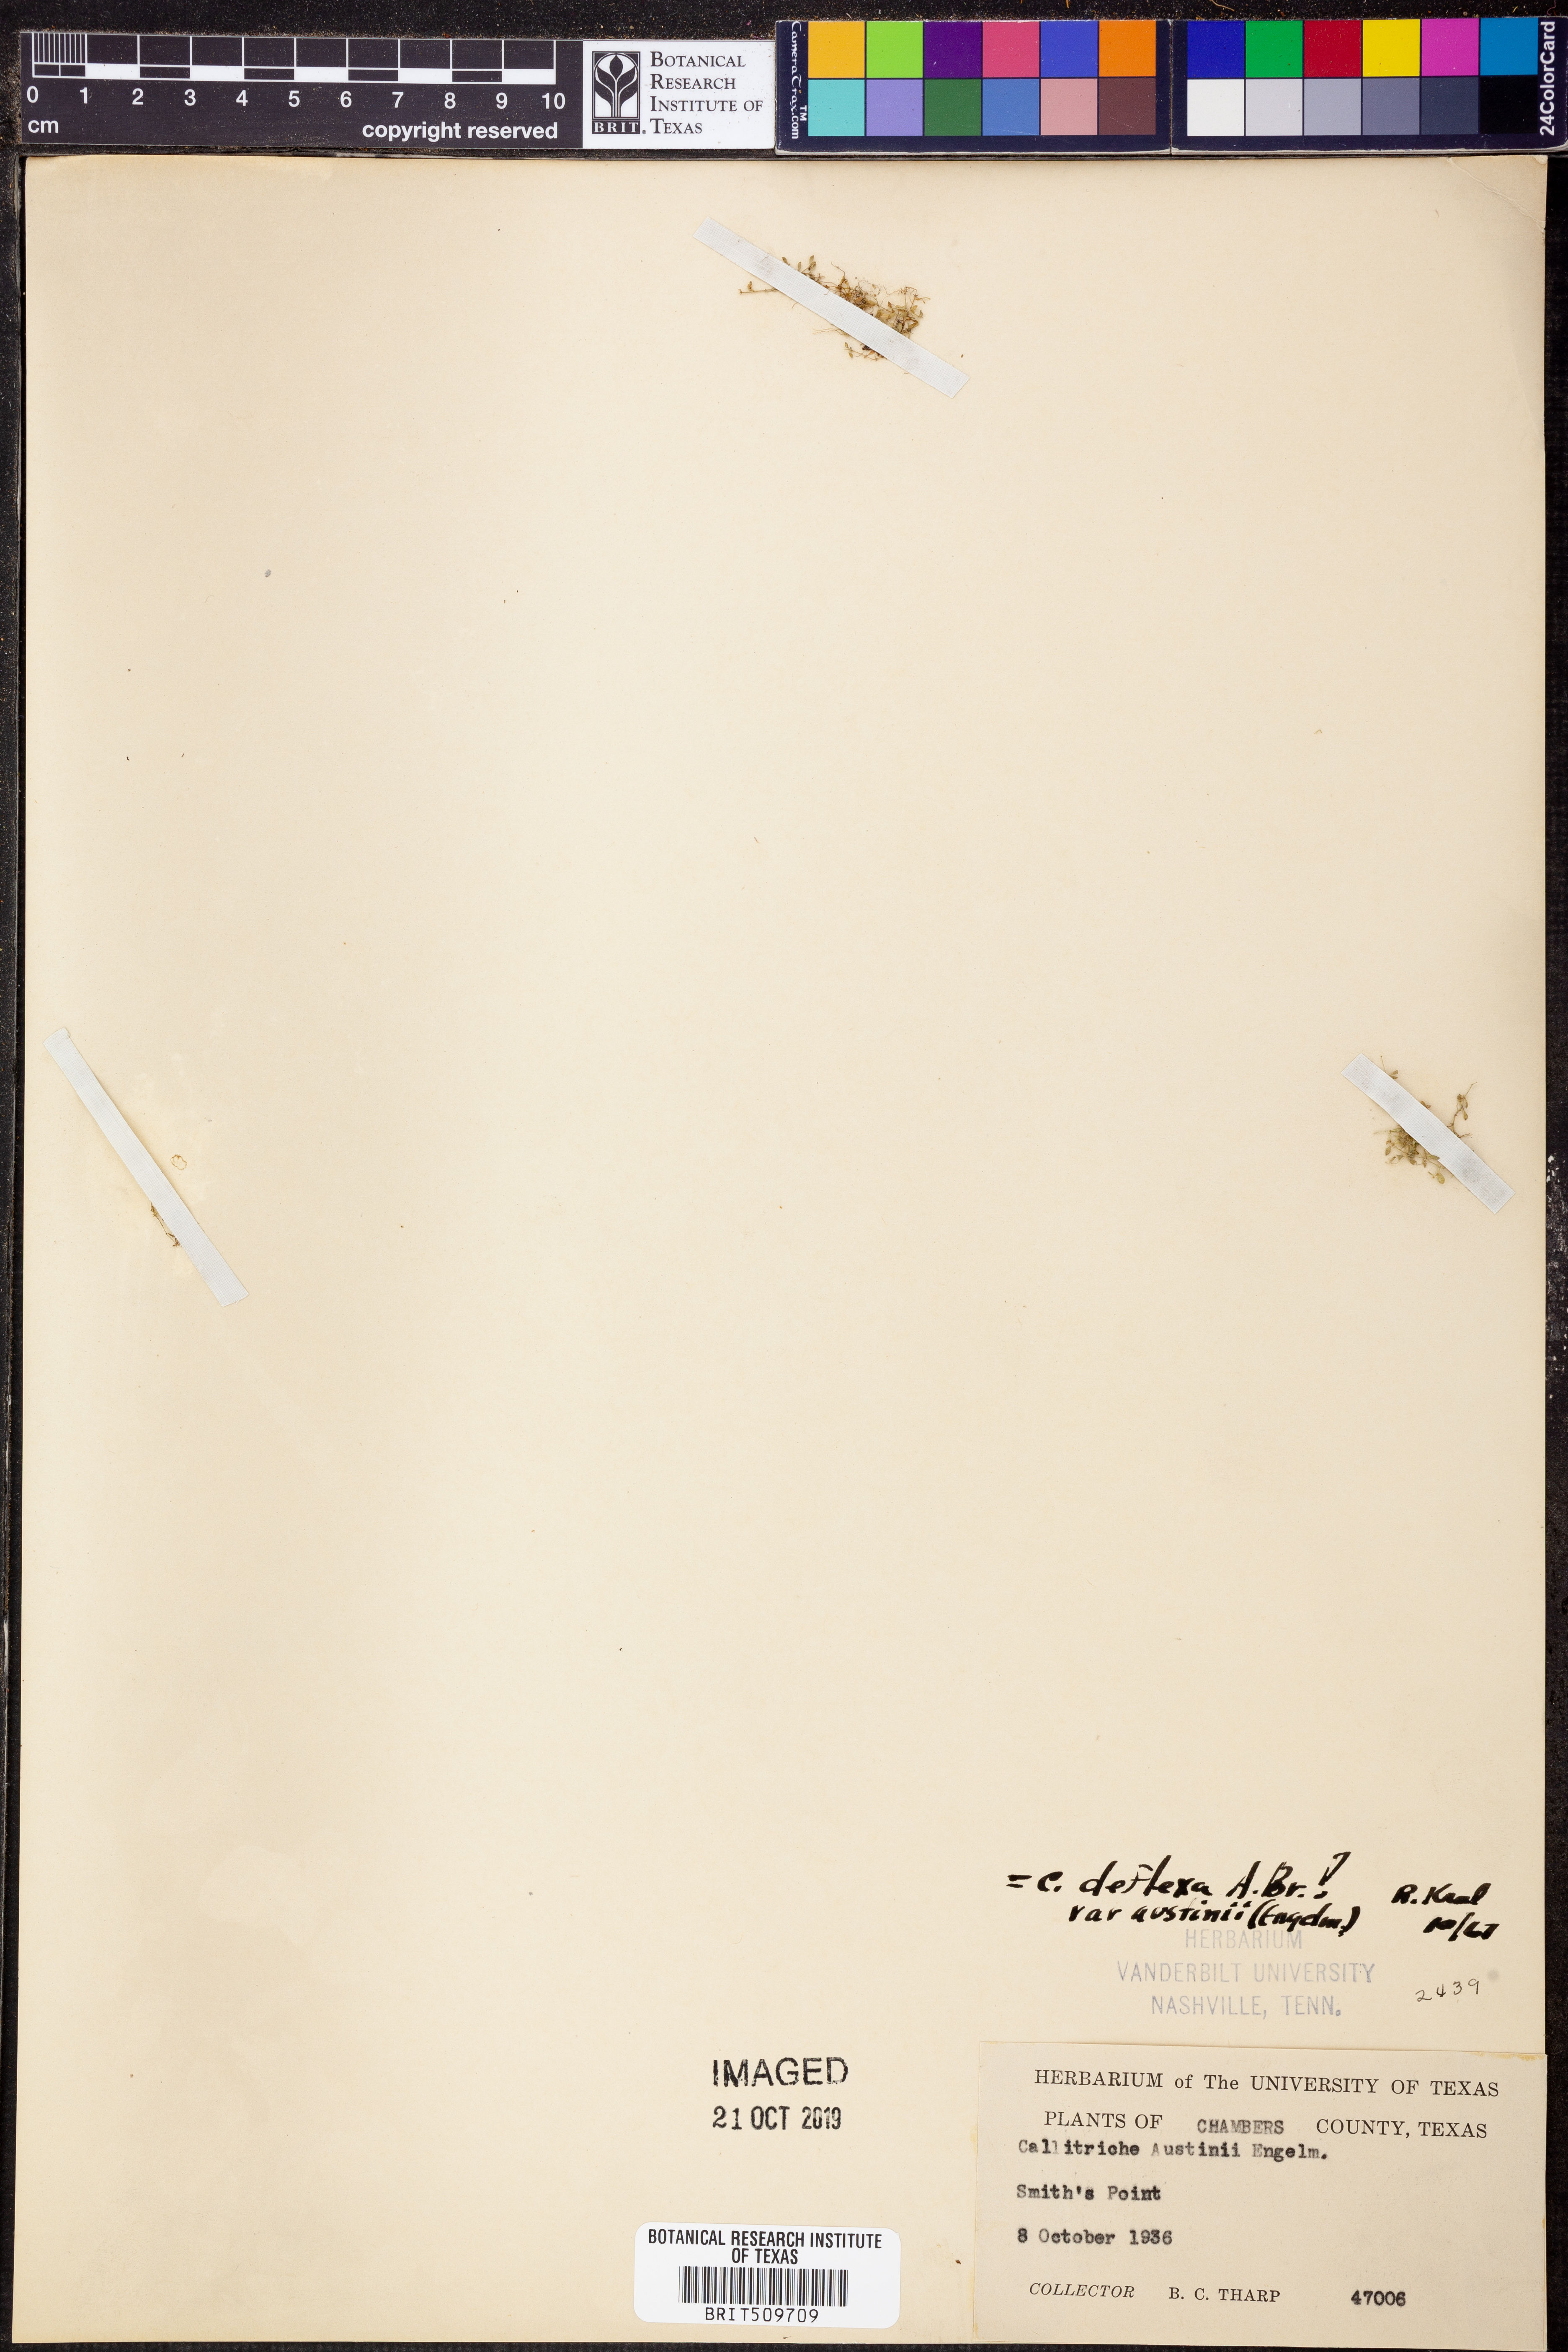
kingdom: Plantae
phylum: Tracheophyta
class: Magnoliopsida
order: Lamiales
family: Plantaginaceae
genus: Callitriche
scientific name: Callitriche terrestris
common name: Terrestrial water-starwort
